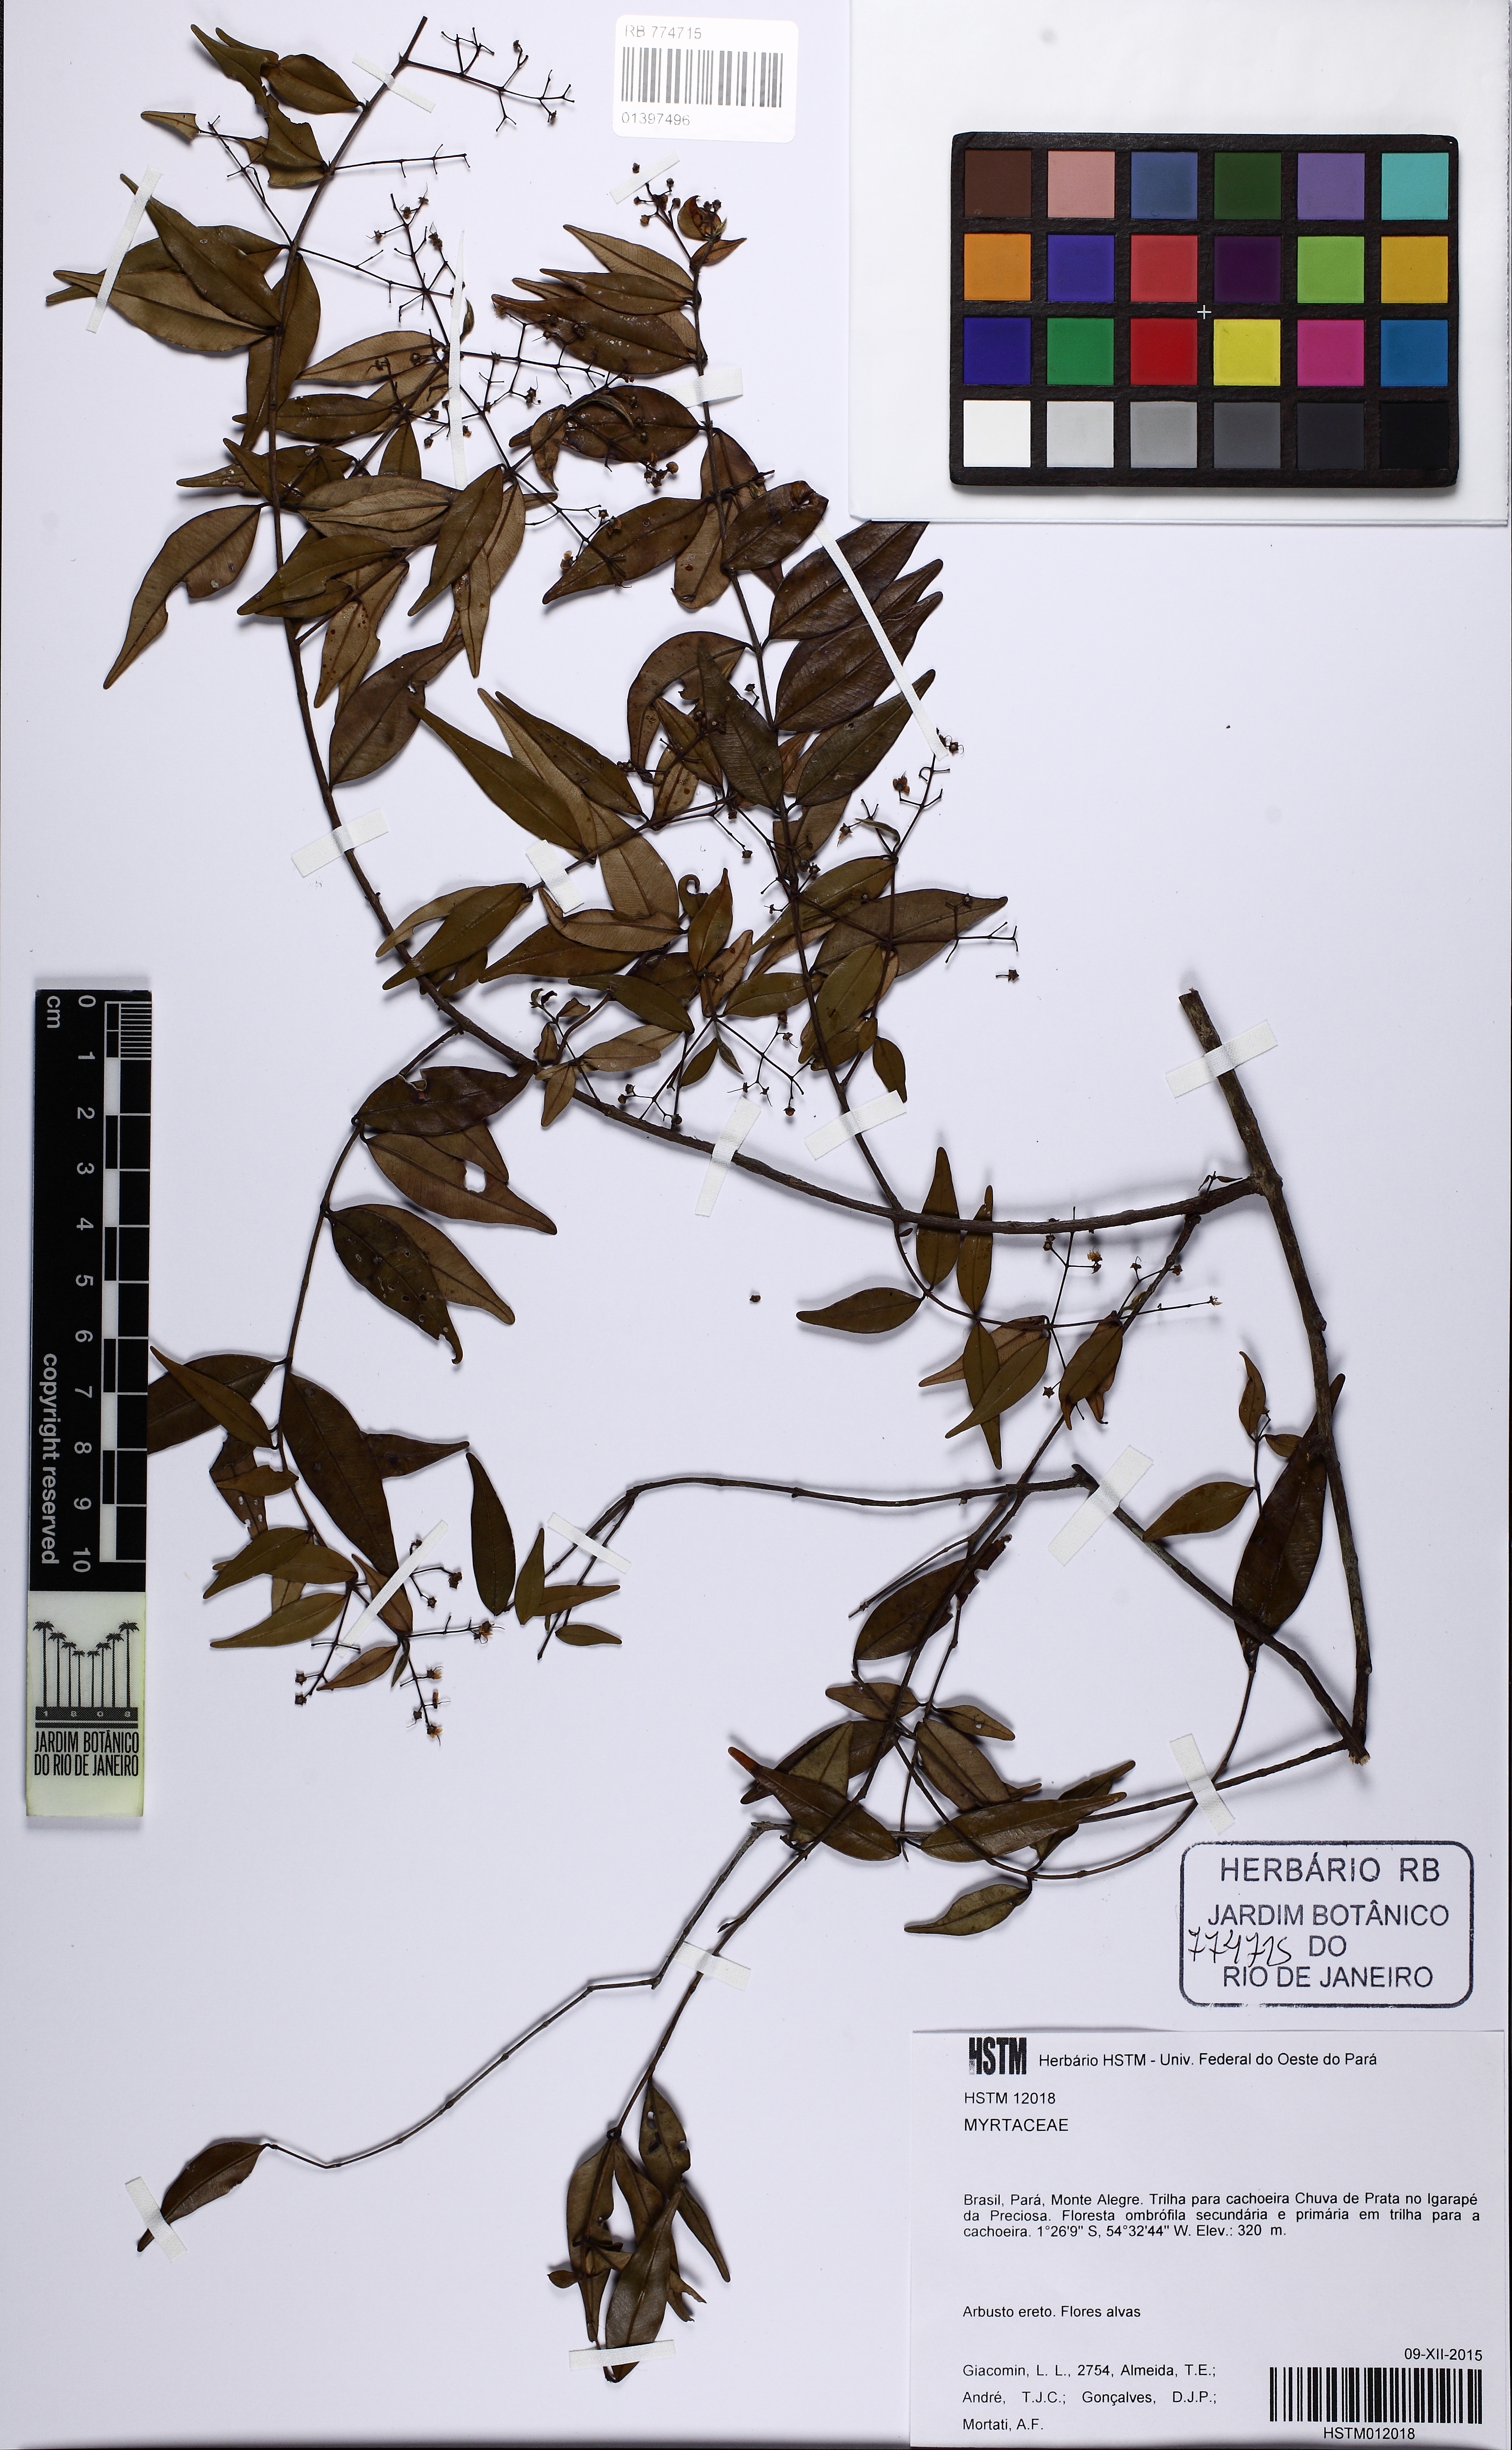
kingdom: Plantae
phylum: Tracheophyta
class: Magnoliopsida
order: Myrtales
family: Myrtaceae
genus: Myrcia
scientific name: Myrcia sylvatica
